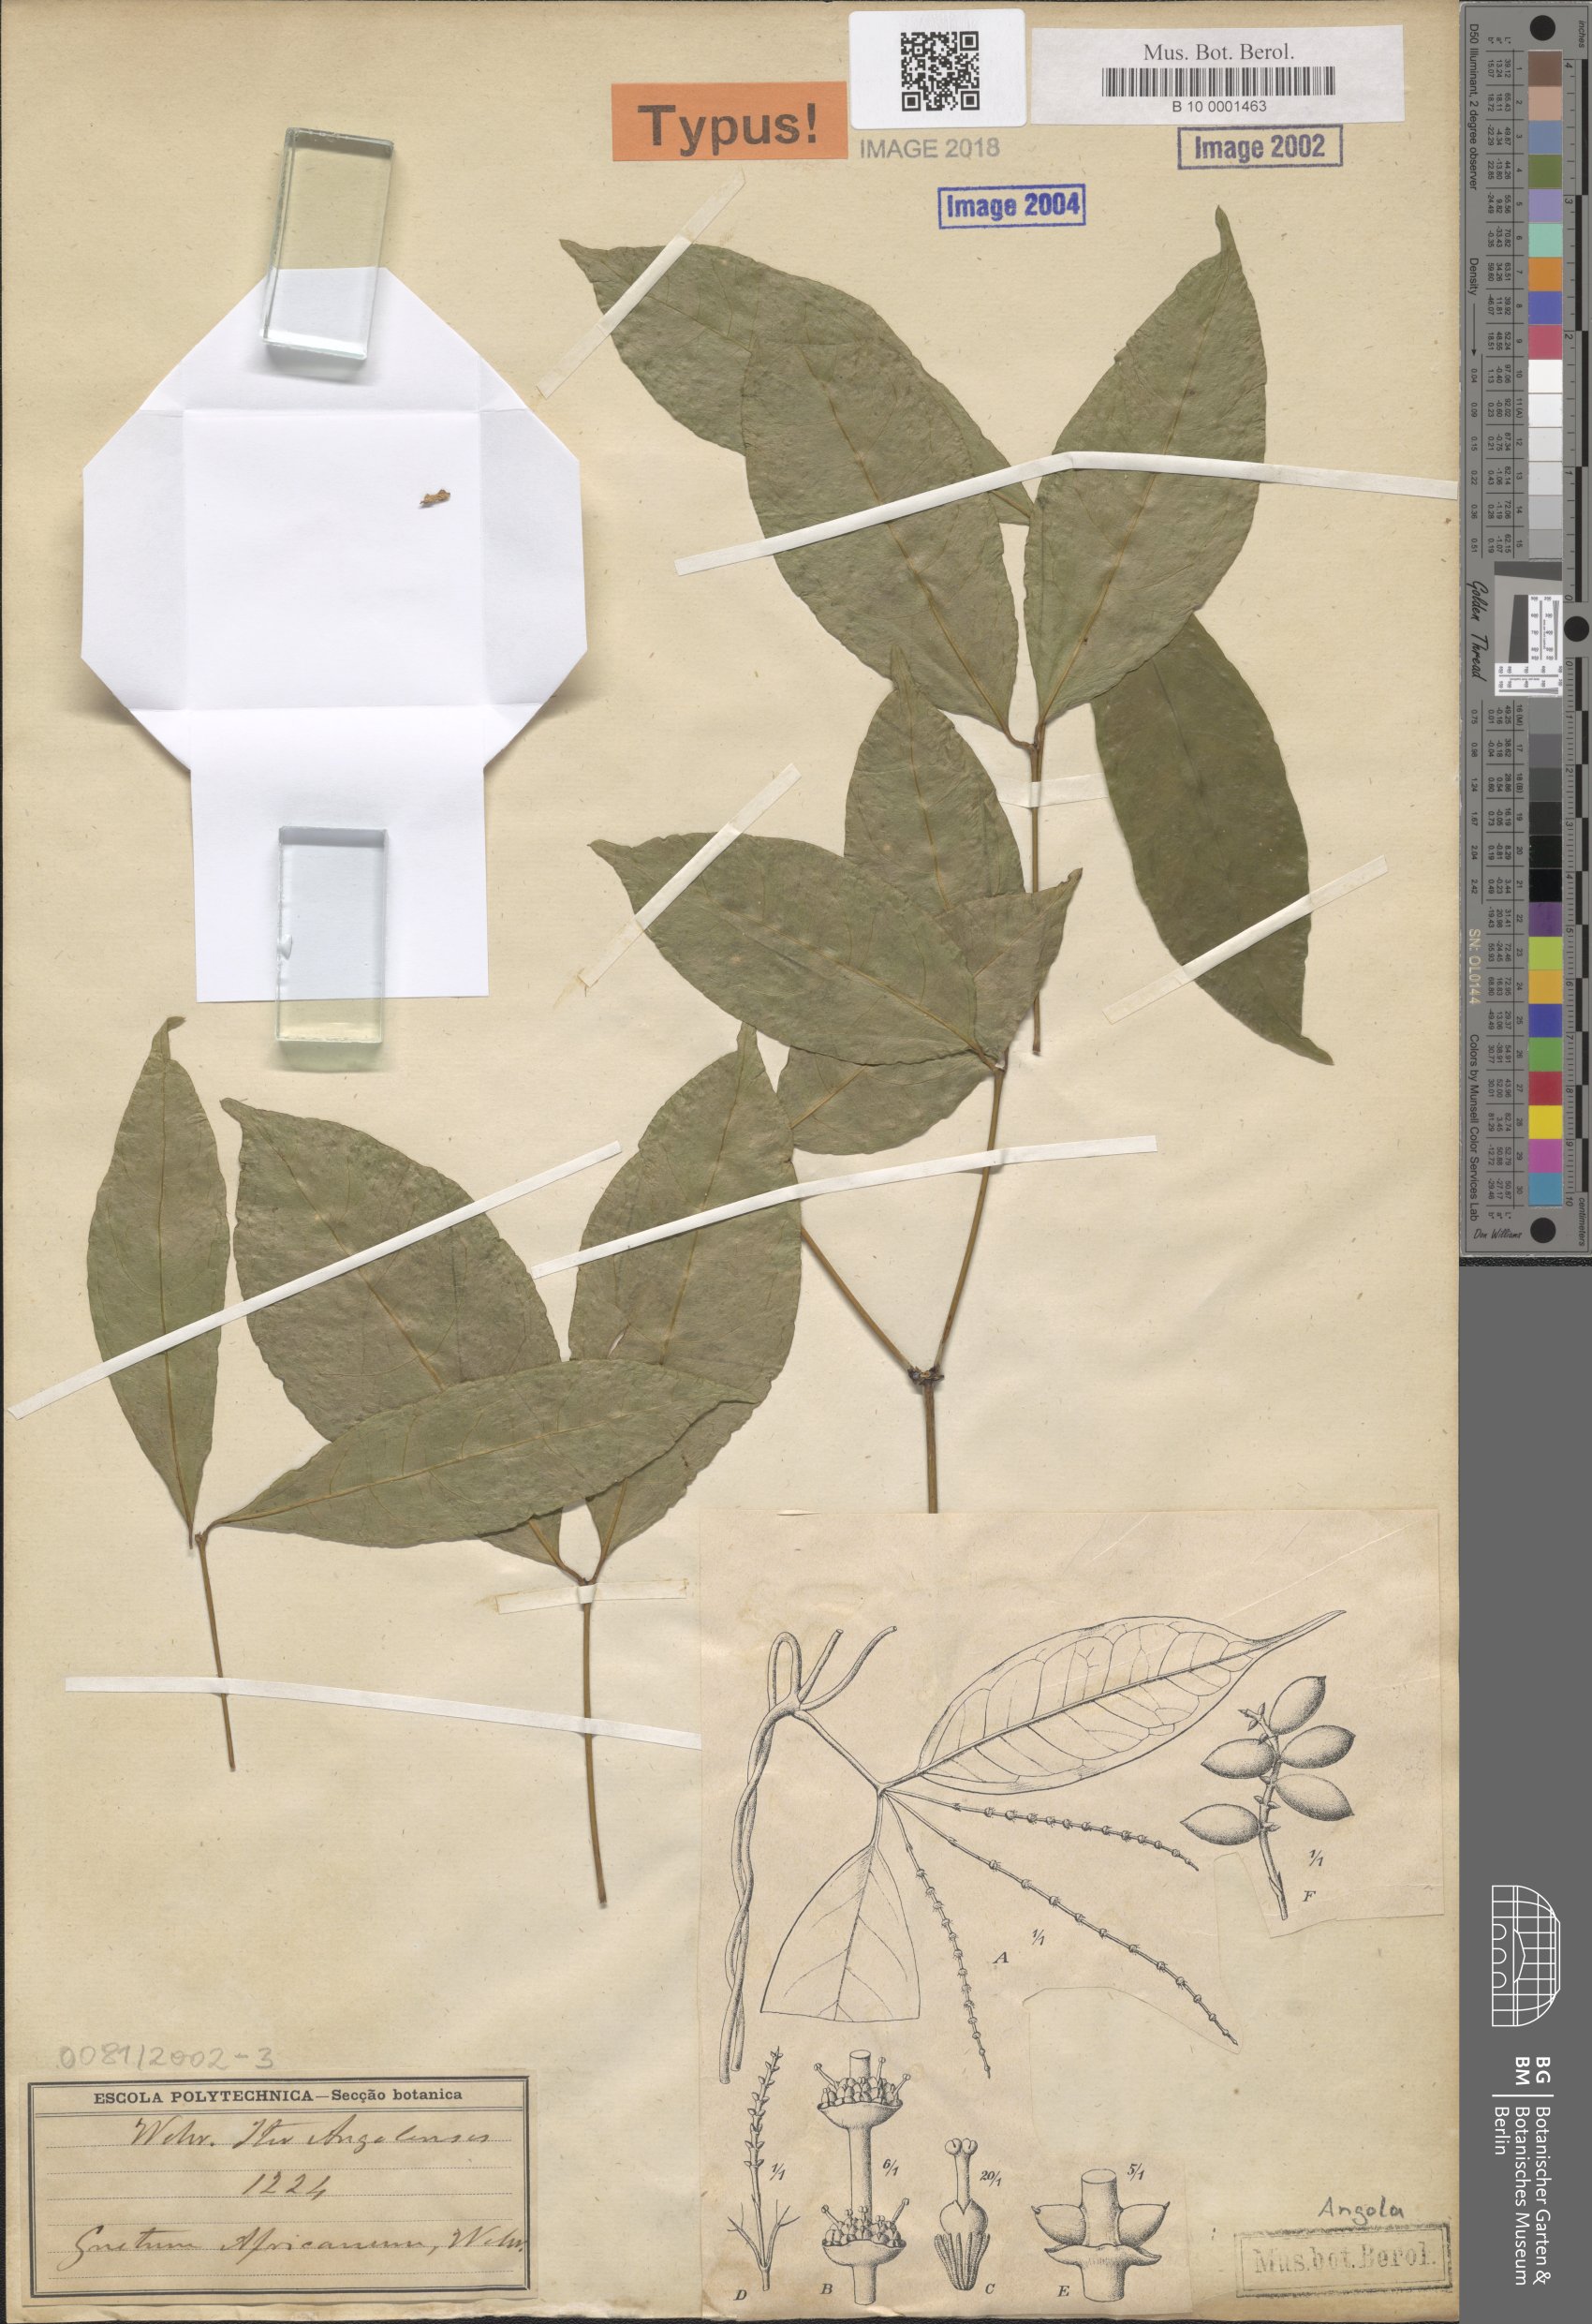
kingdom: Plantae
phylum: Tracheophyta
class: Gnetopsida
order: Gnetales
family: Gnetaceae
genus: Gnetum
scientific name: Gnetum africanum
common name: Eru
